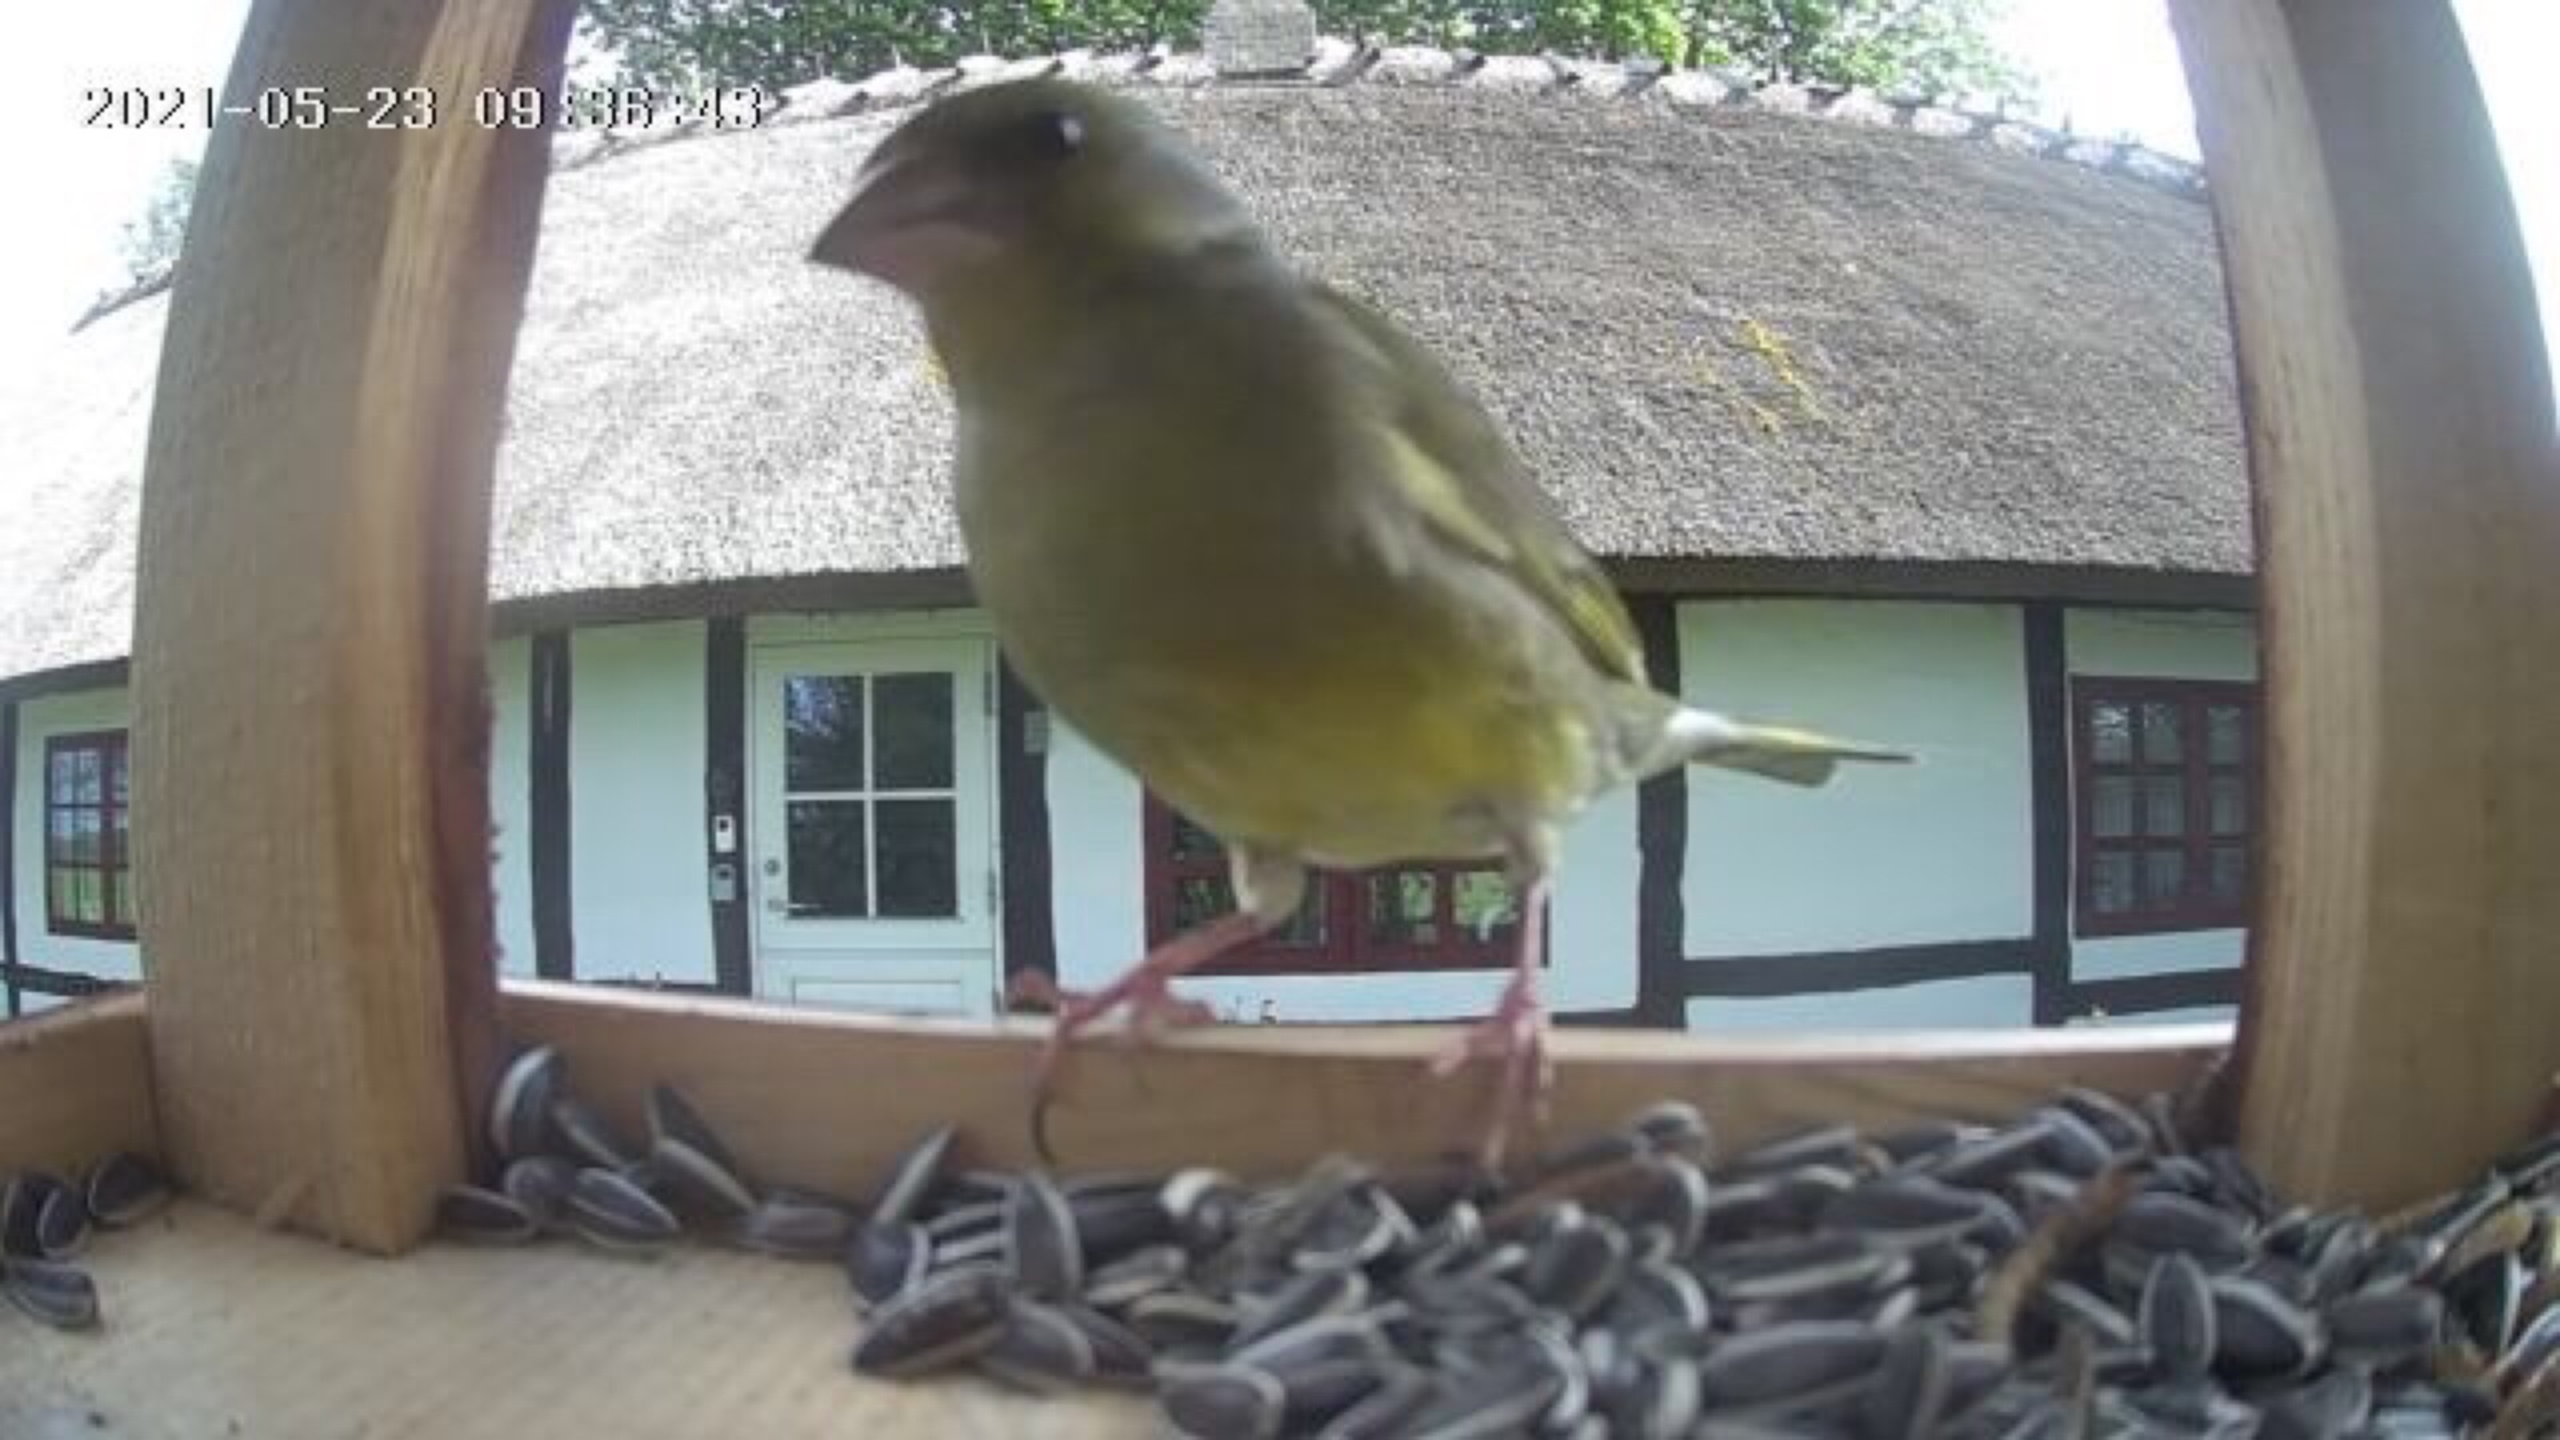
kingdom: Plantae
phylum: Tracheophyta
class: Liliopsida
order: Poales
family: Poaceae
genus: Chloris
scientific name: Chloris chloris
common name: Grønirisk
